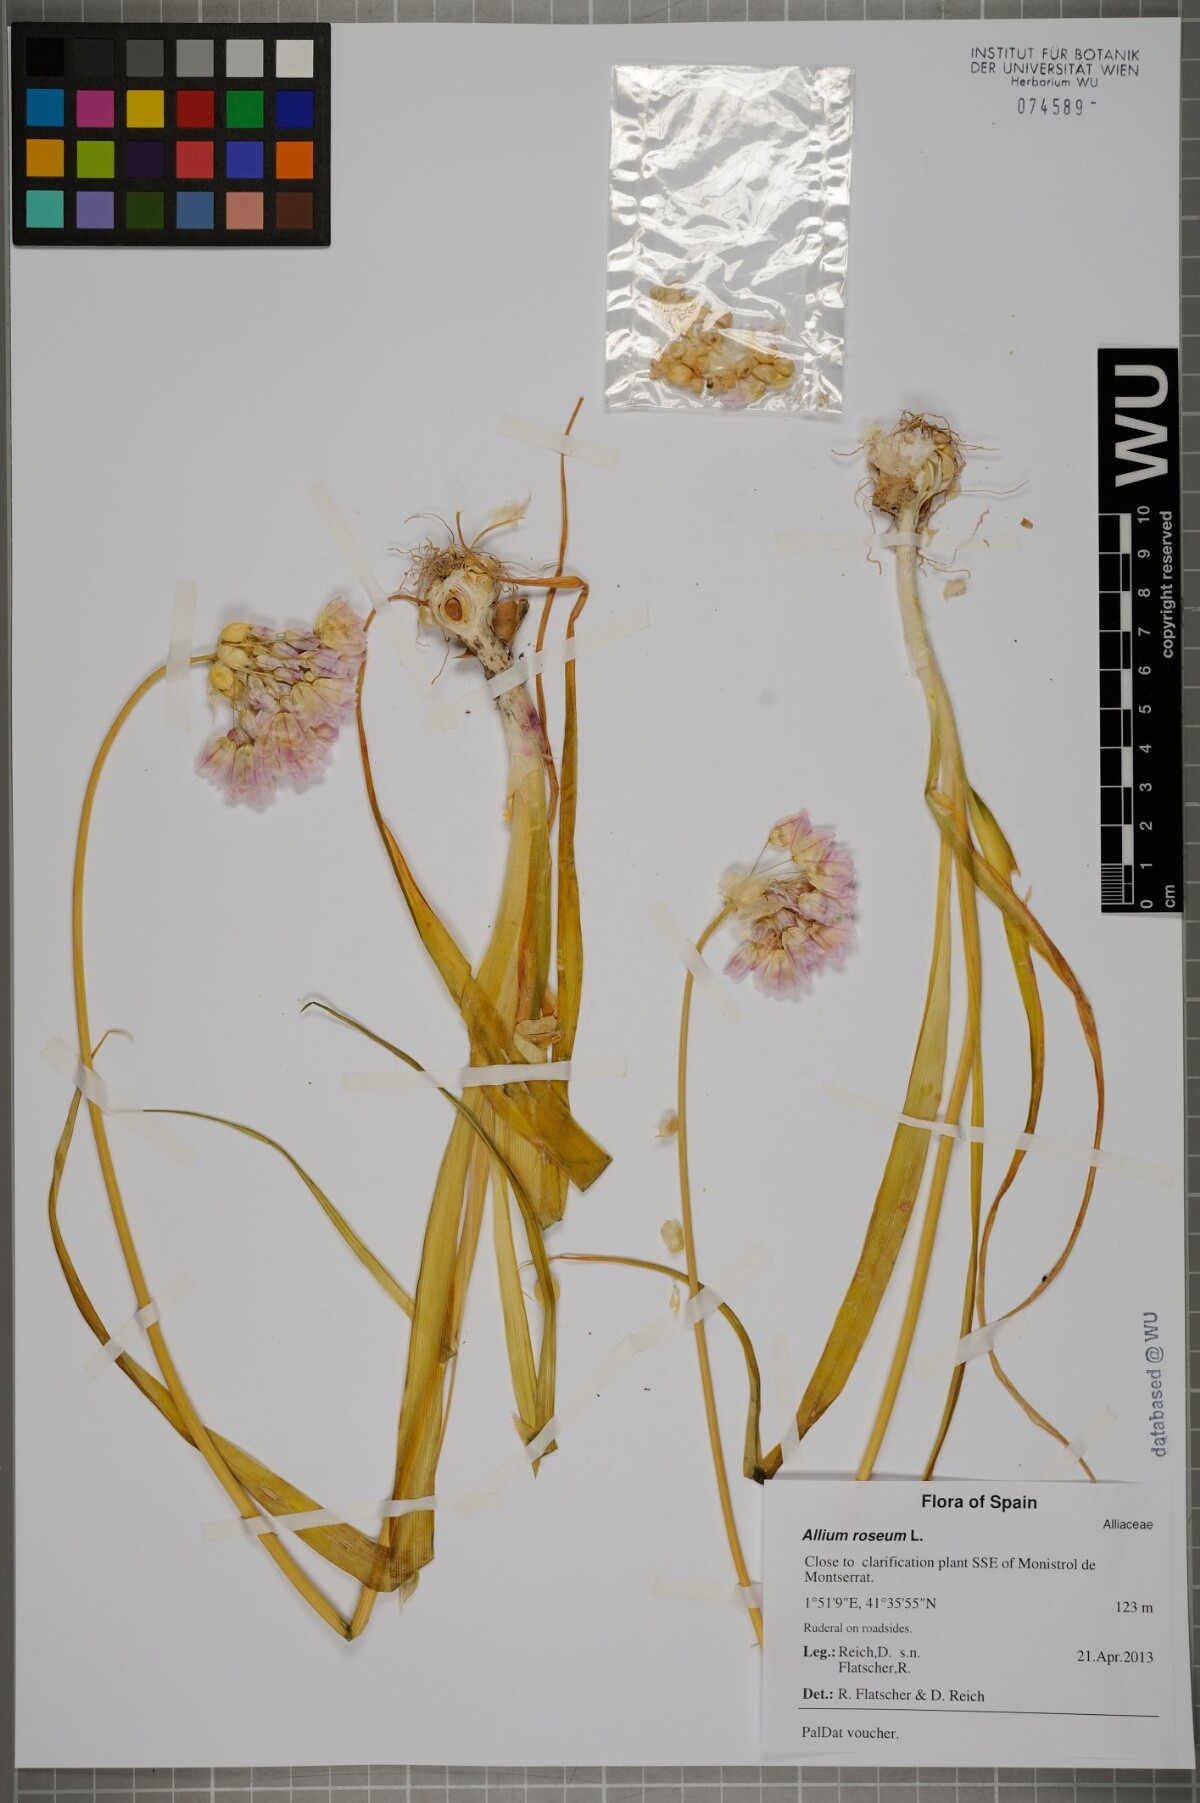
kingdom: Plantae
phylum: Tracheophyta
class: Liliopsida
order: Asparagales
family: Amaryllidaceae
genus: Allium
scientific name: Allium roseum
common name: Rosy garlic
